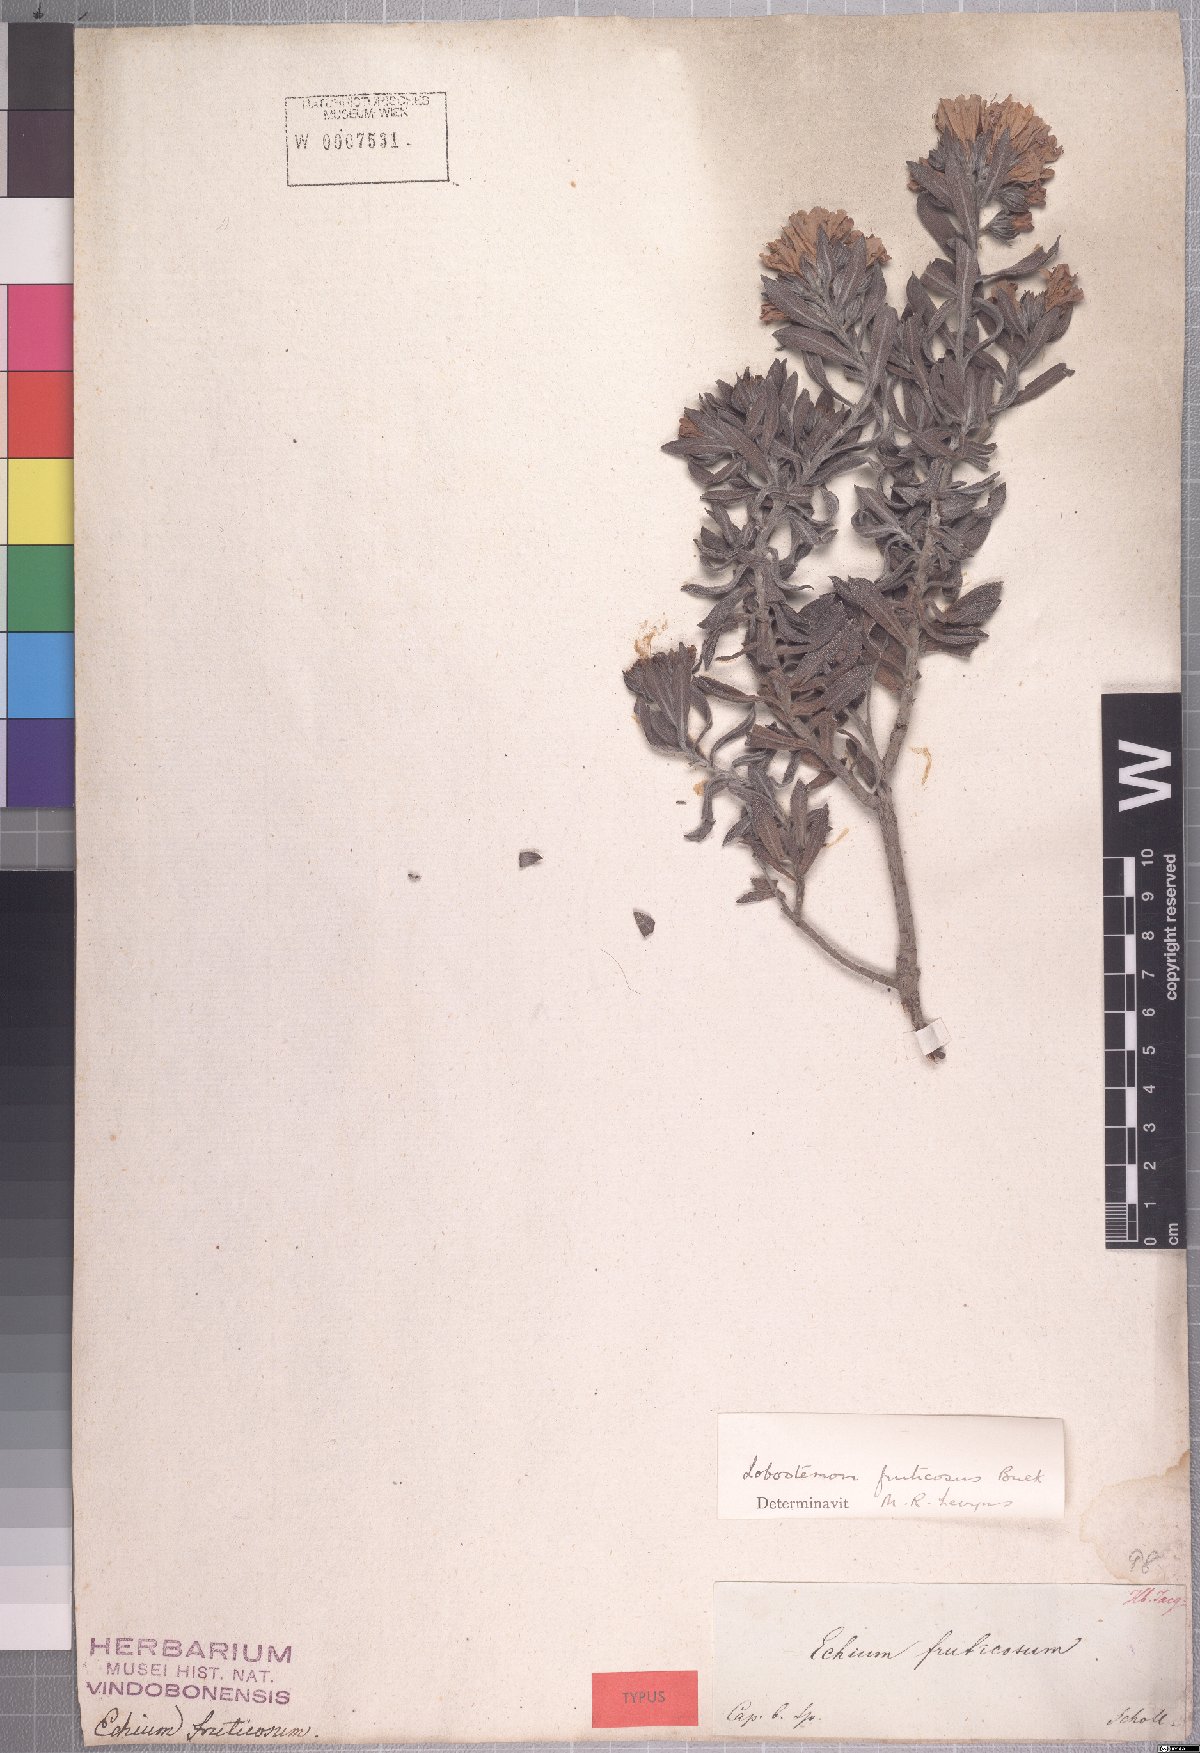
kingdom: Plantae
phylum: Tracheophyta
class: Magnoliopsida
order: Boraginales
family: Boraginaceae
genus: Lobostemon
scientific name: Lobostemon fruticosus
